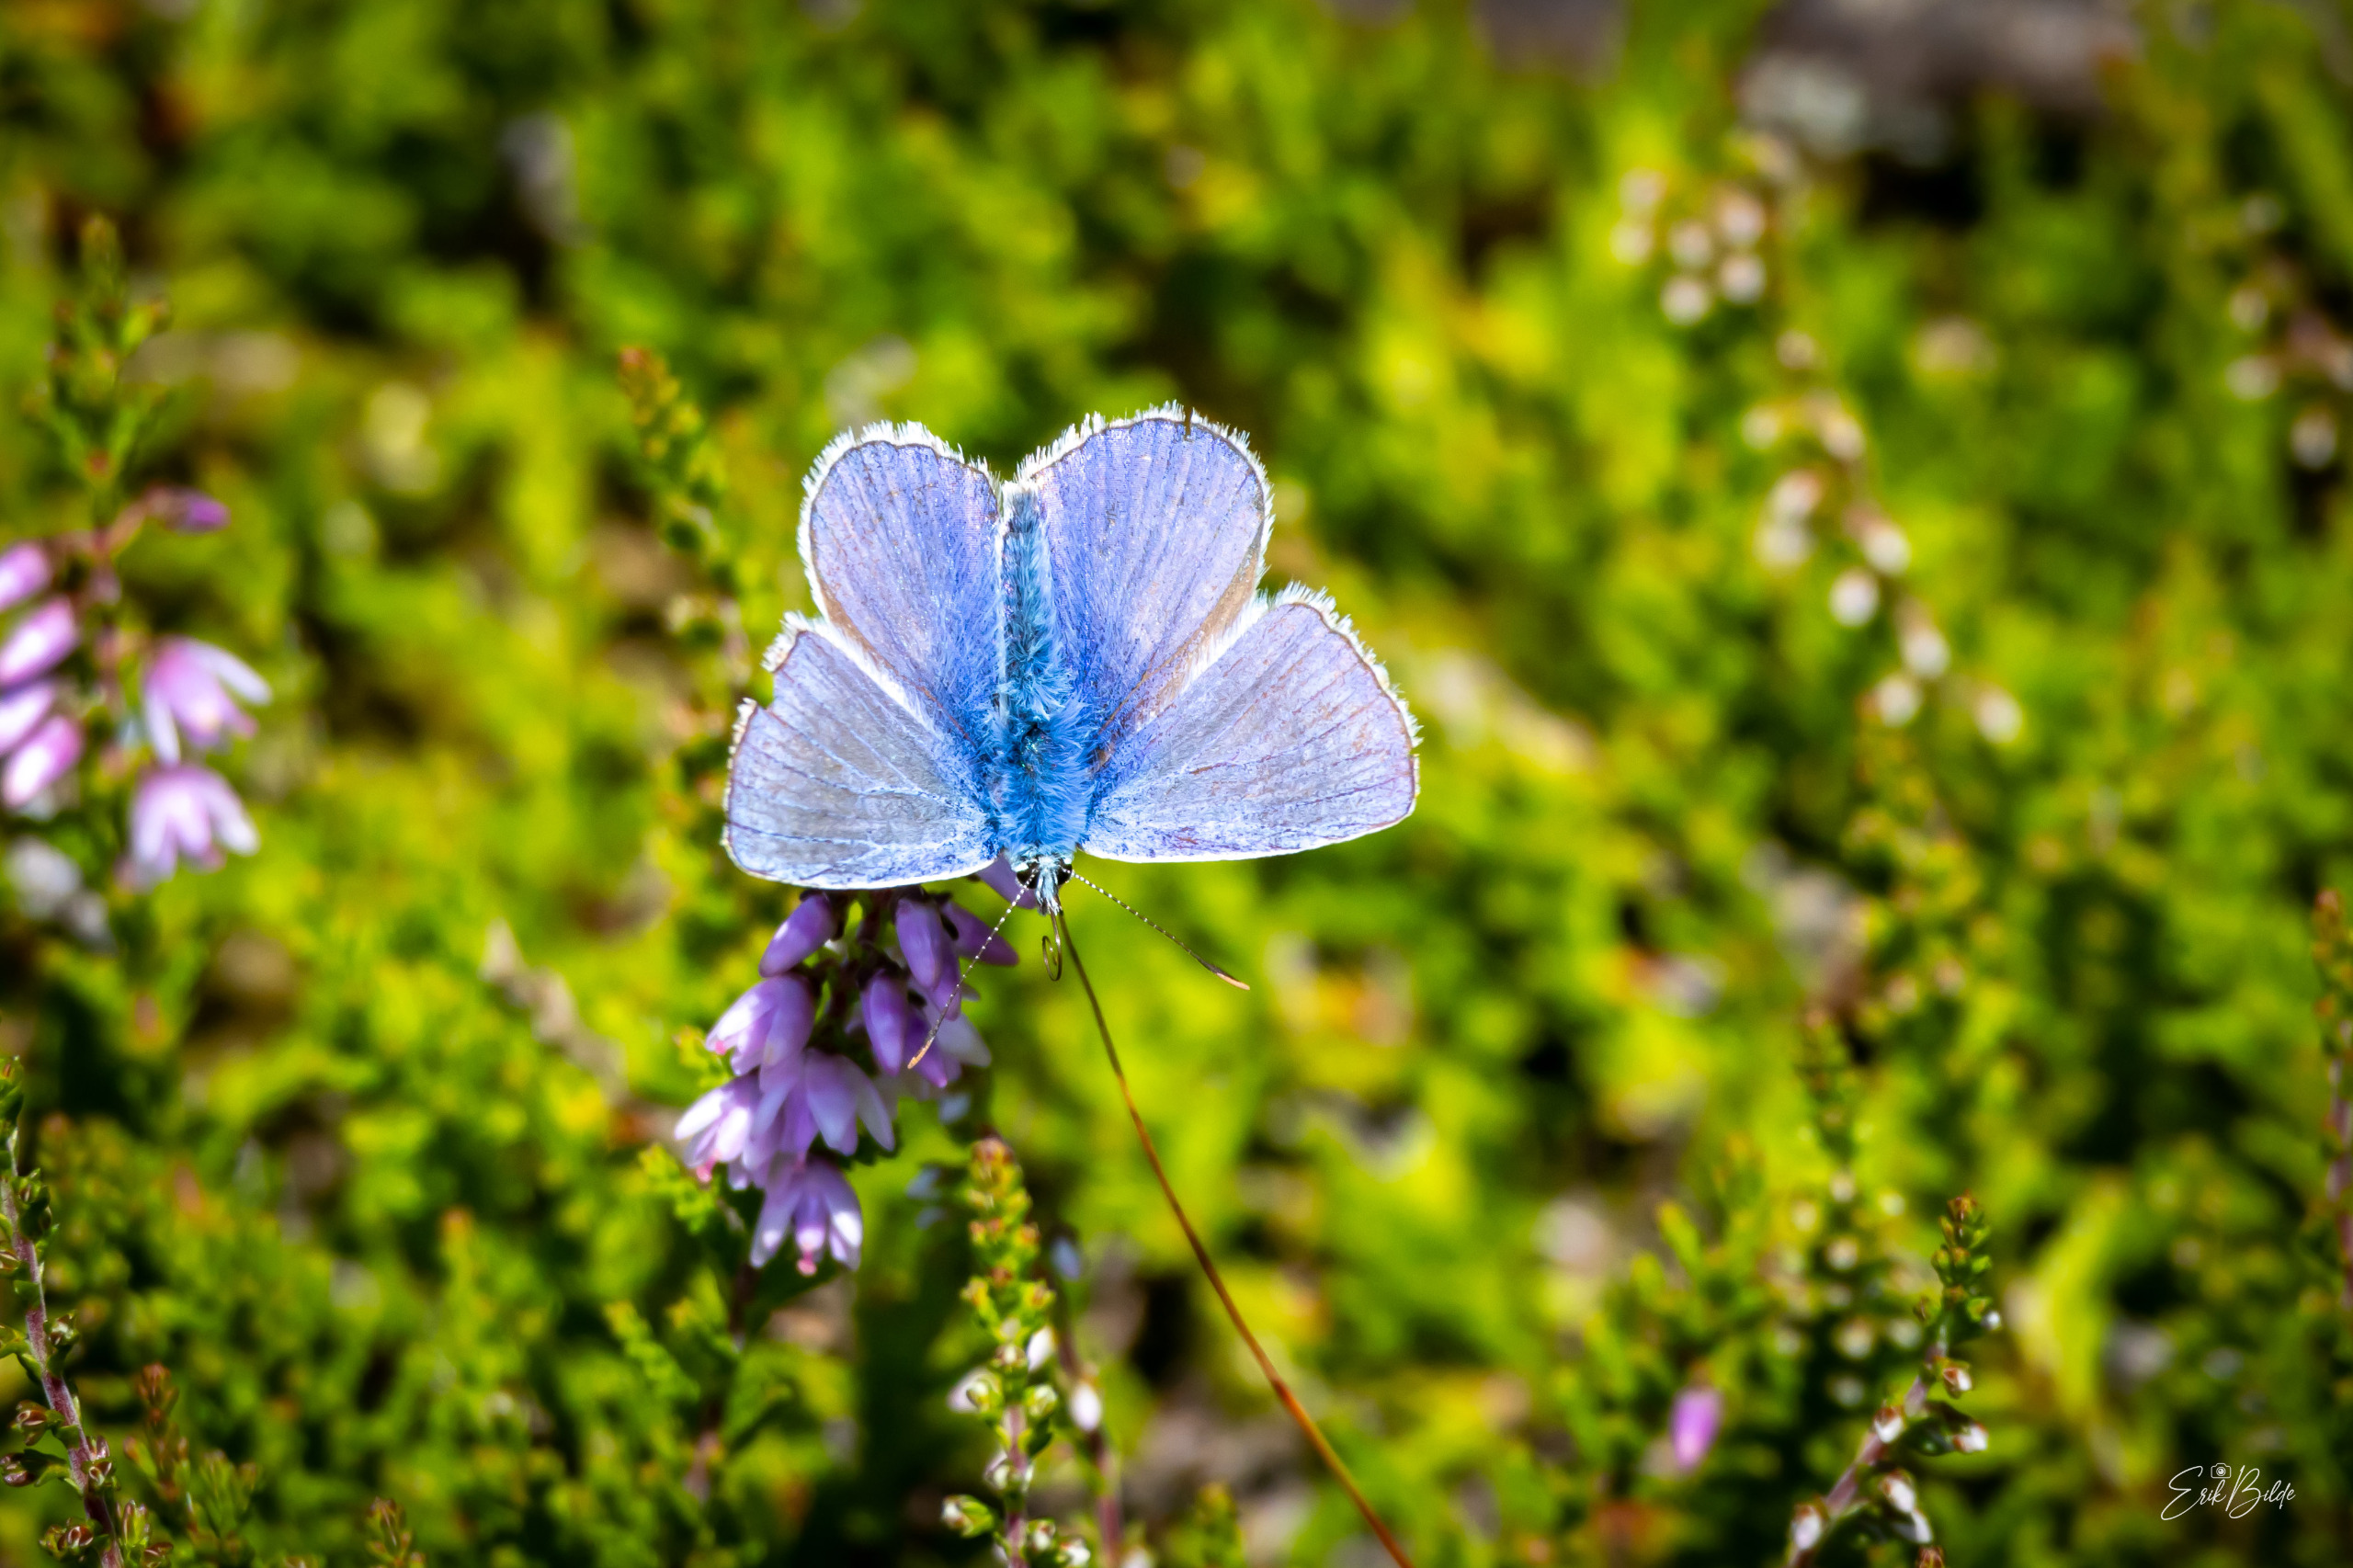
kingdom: Animalia
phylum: Arthropoda
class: Insecta
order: Lepidoptera
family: Lycaenidae
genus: Polyommatus
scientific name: Polyommatus icarus
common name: Almindelig blåfugl
